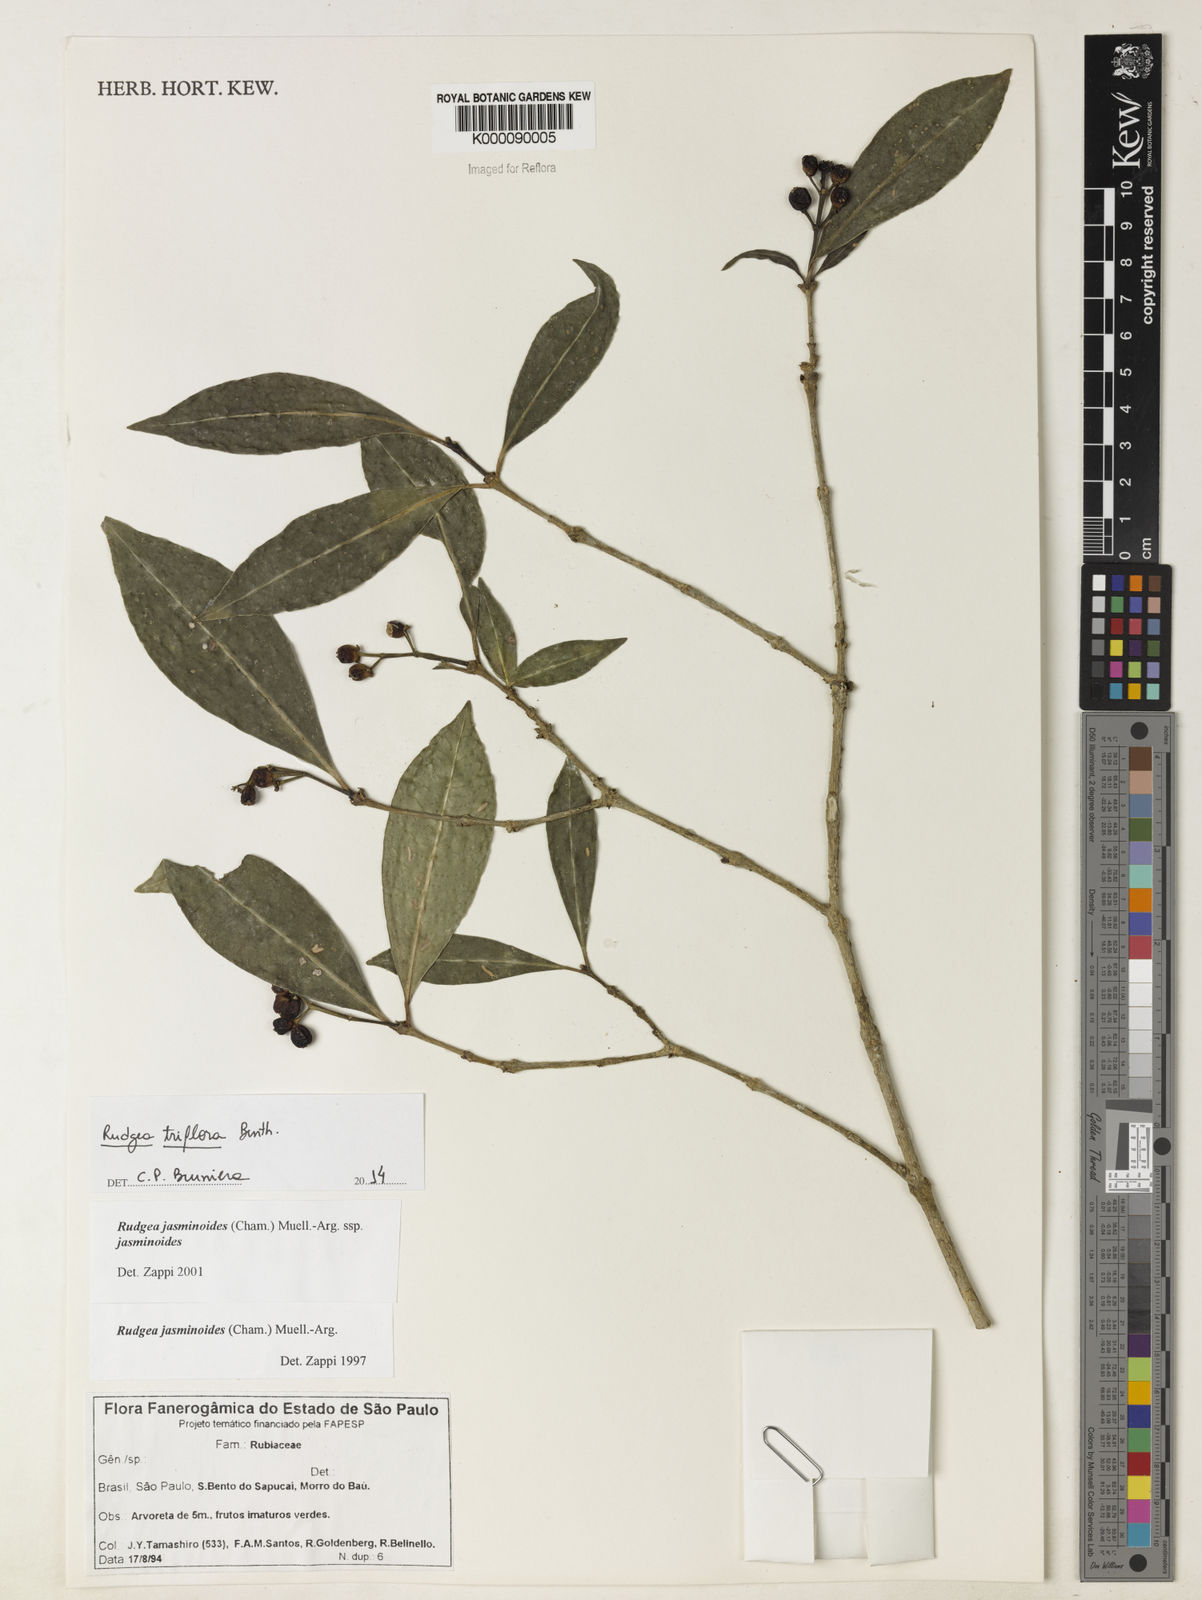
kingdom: Plantae
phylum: Tracheophyta
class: Magnoliopsida
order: Gentianales
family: Rubiaceae
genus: Rudgea
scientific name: Rudgea triflora
